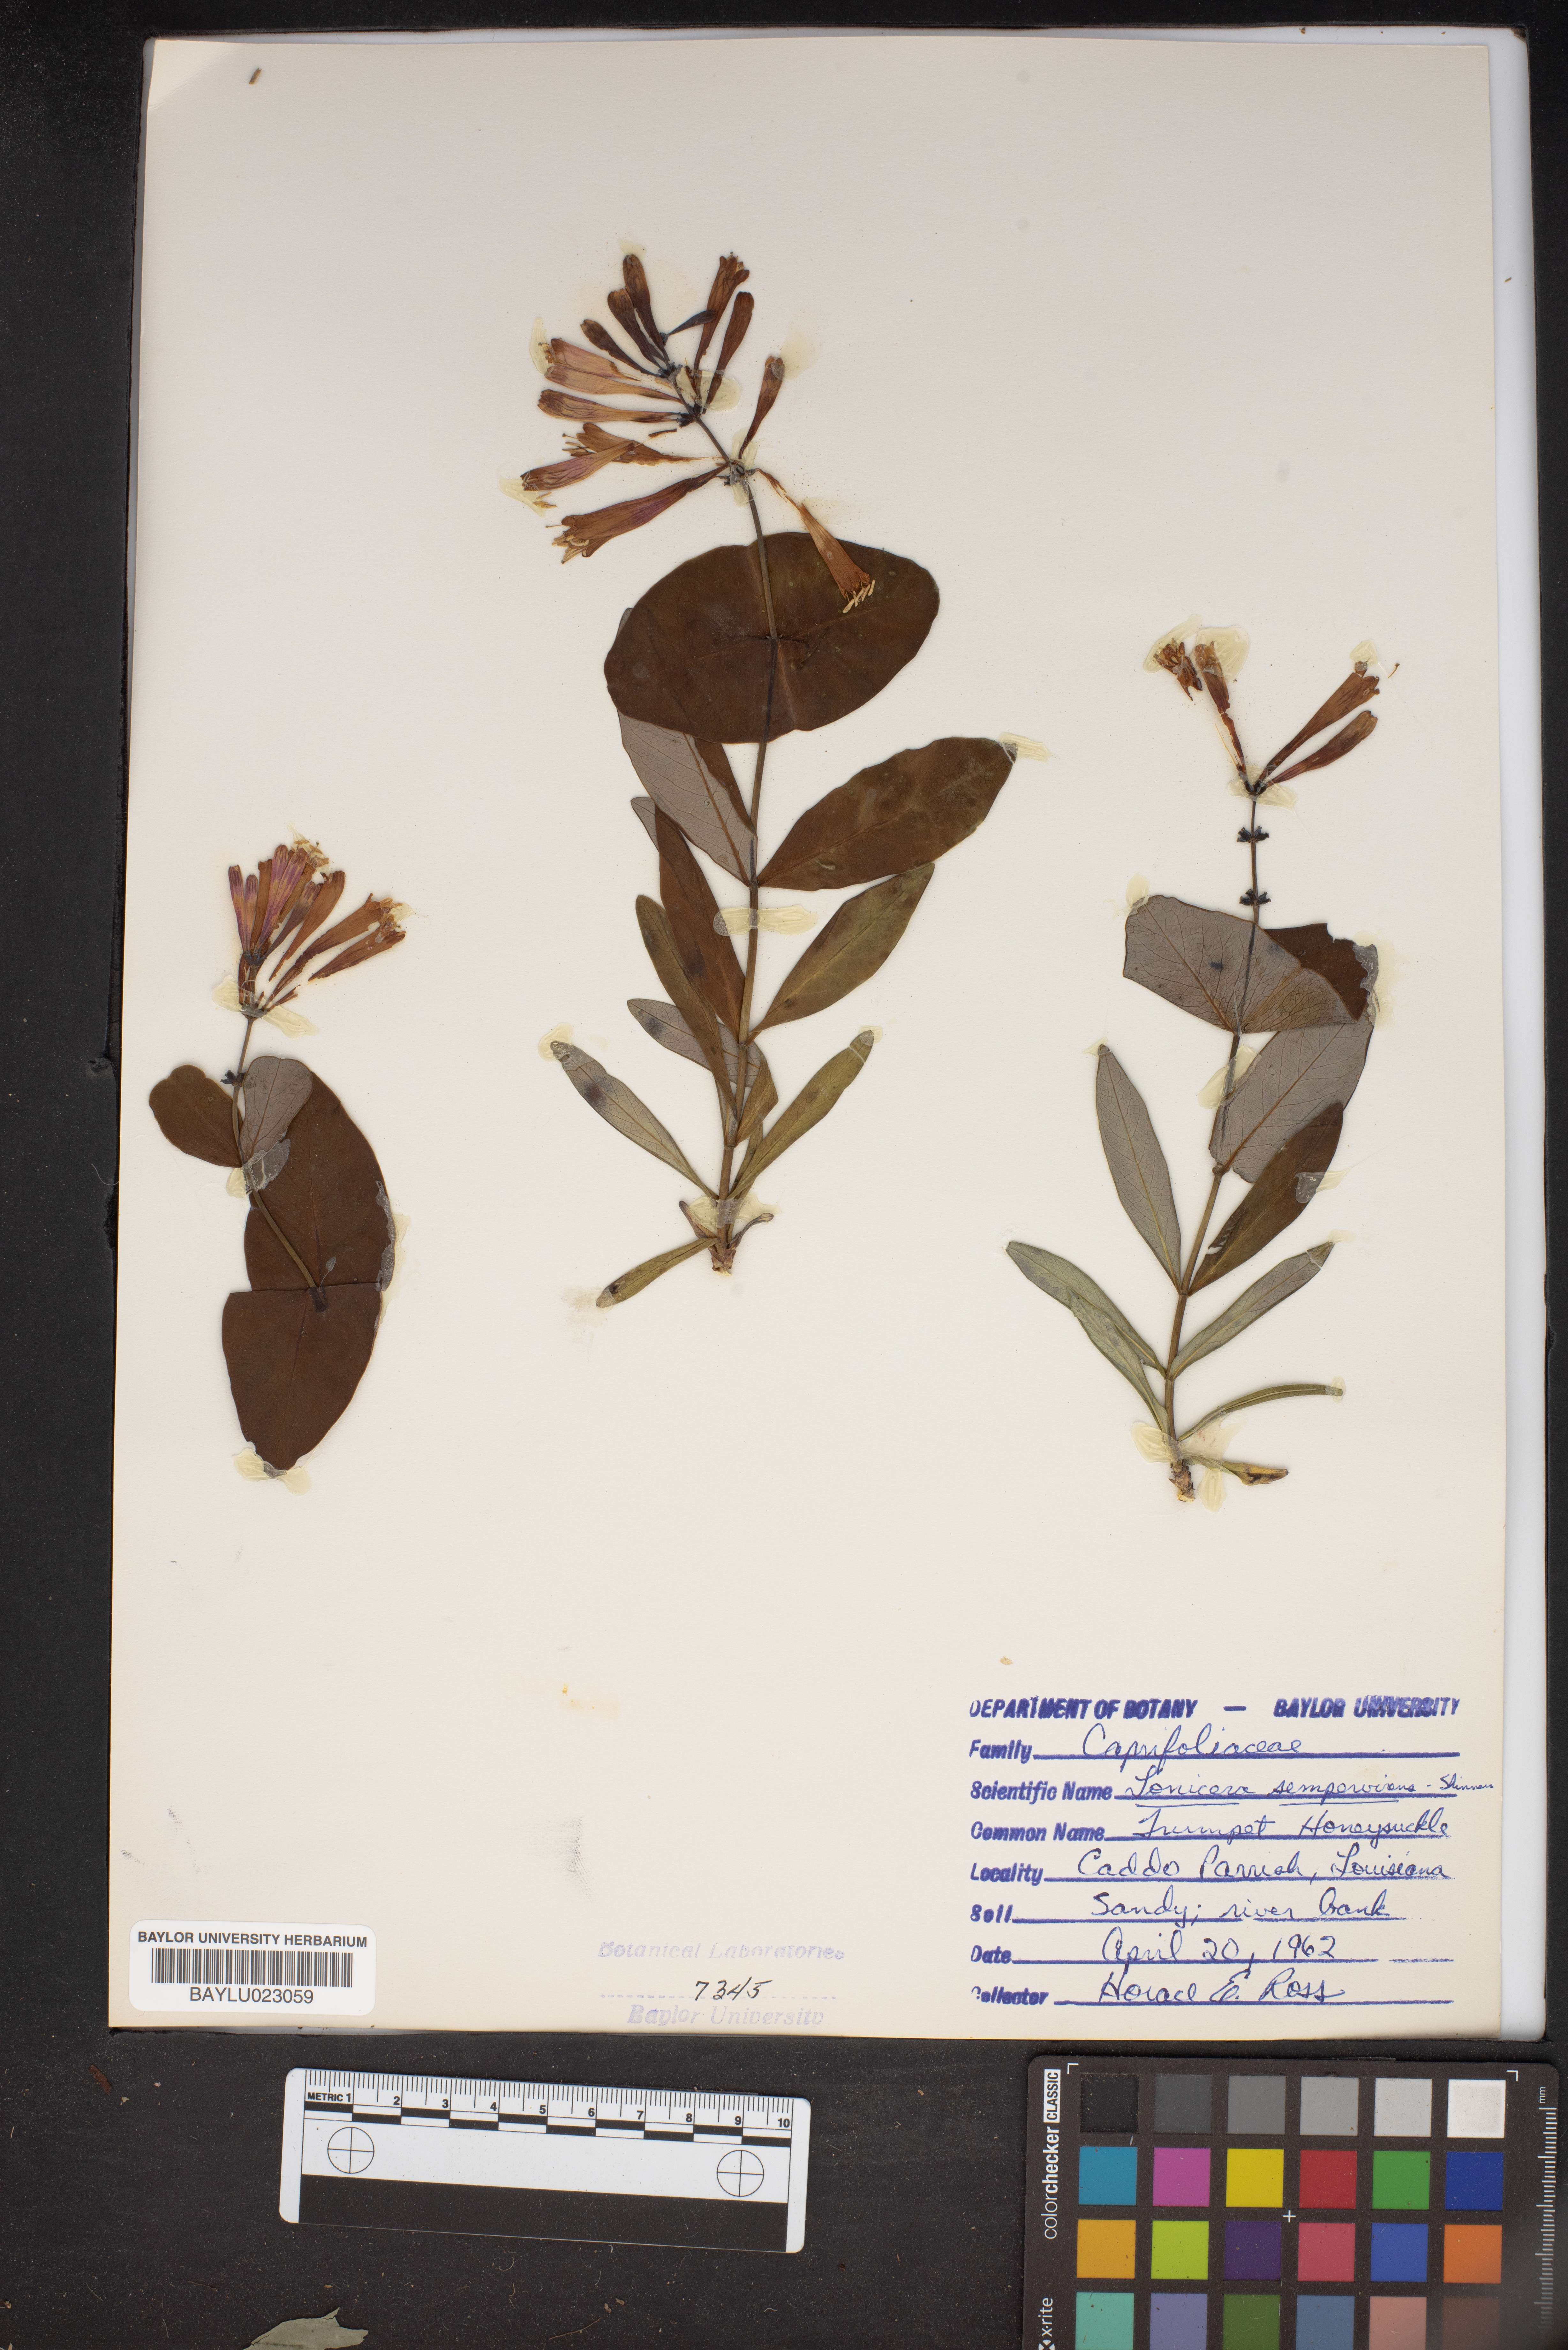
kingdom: Plantae
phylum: Tracheophyta
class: Magnoliopsida
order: Dipsacales
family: Caprifoliaceae
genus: Lonicera
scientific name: Lonicera sempervirens
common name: Coral honeysuckle
